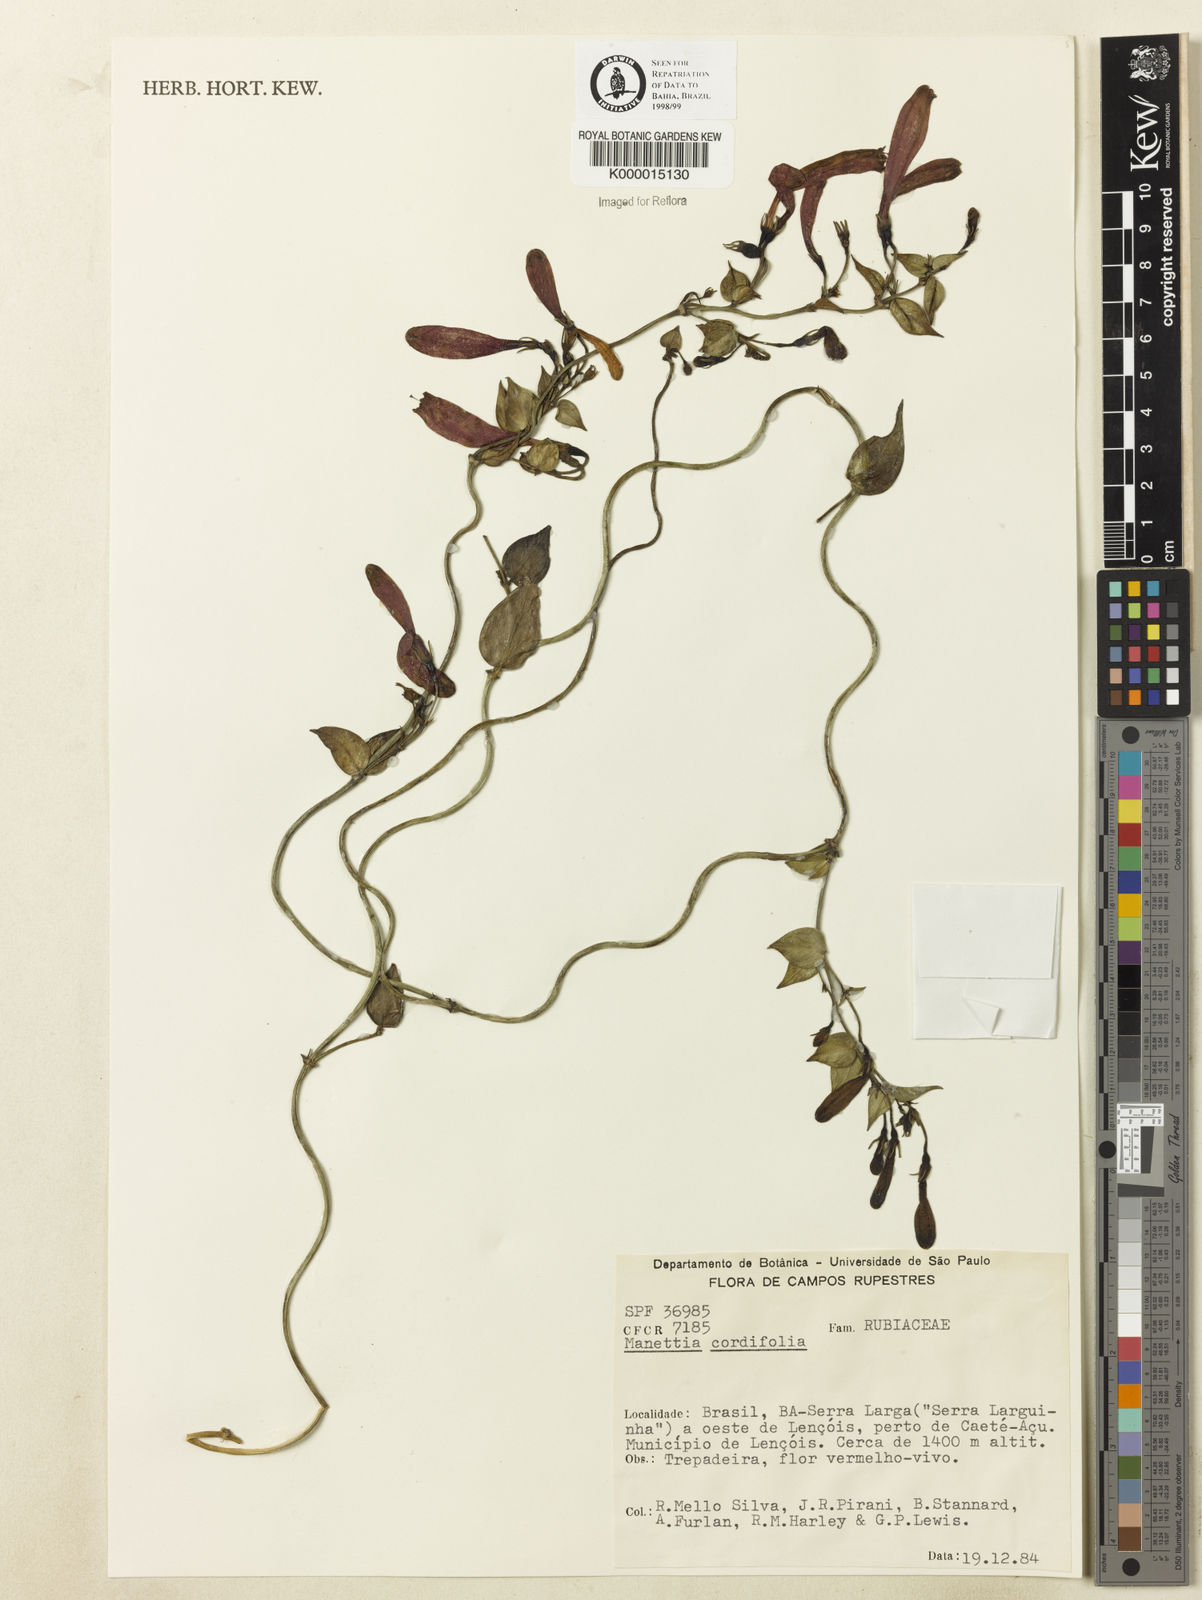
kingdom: Plantae
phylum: Tracheophyta
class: Magnoliopsida
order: Gentianales
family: Rubiaceae
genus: Manettia
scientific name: Manettia cordifolia
